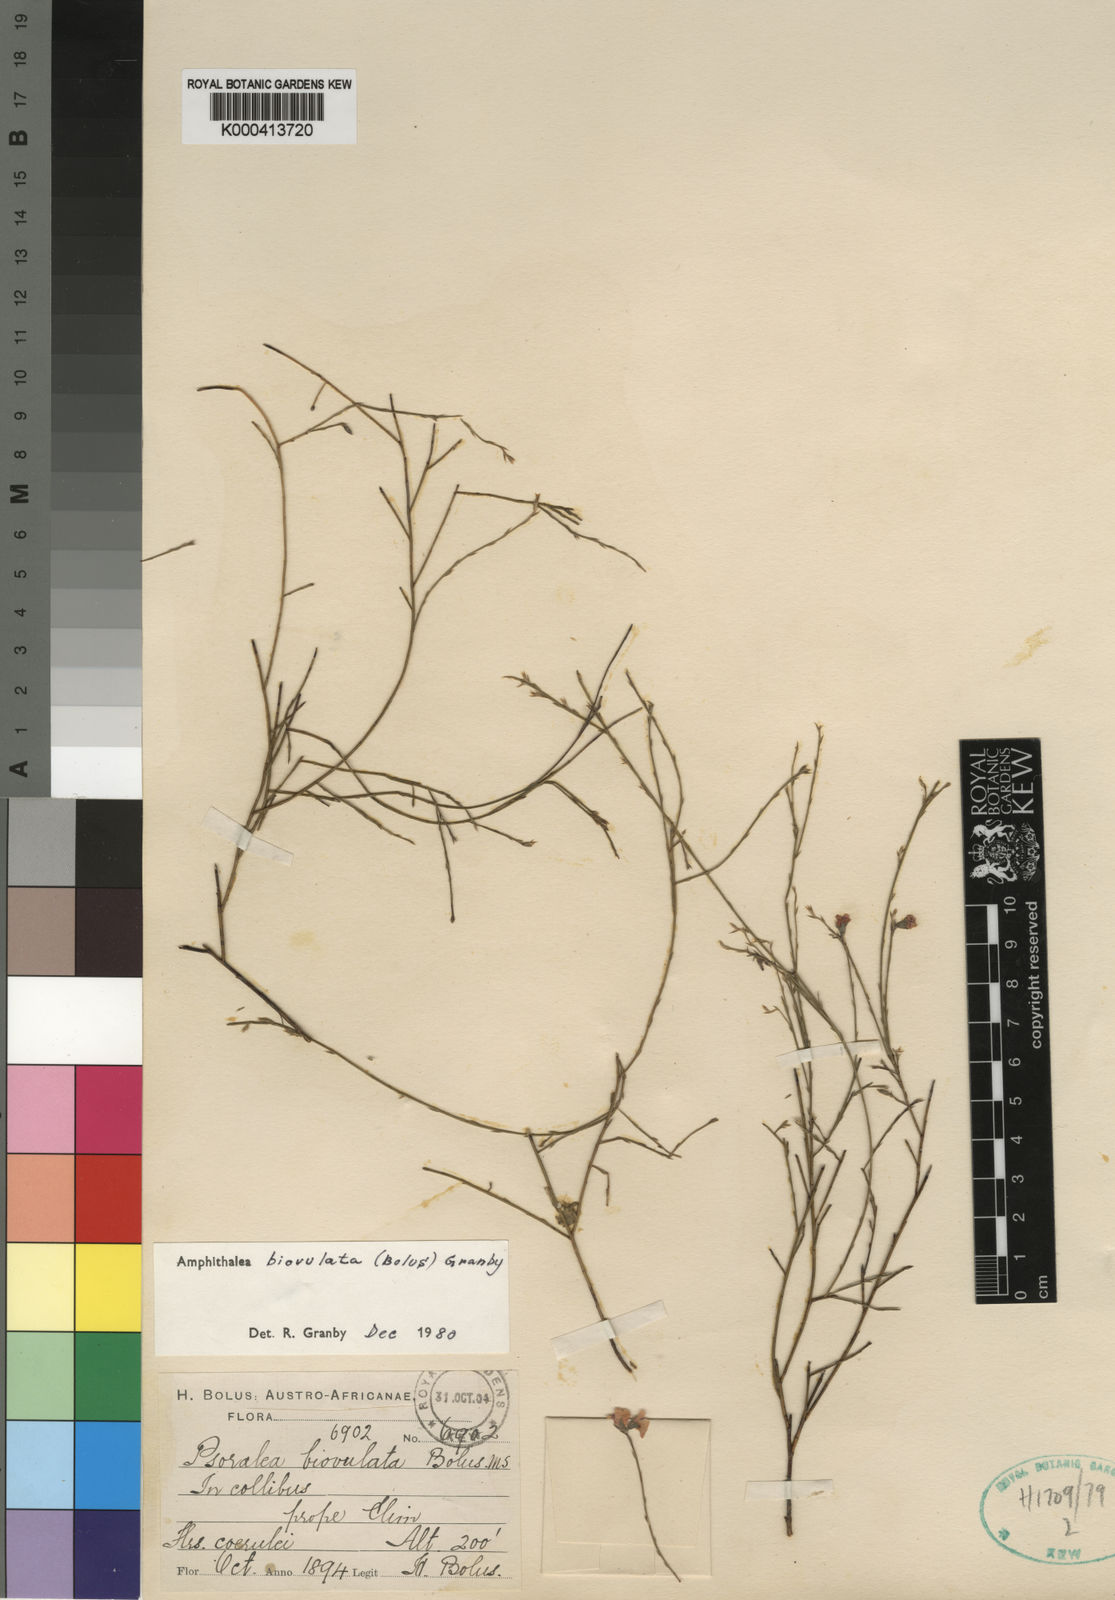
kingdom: Plantae
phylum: Tracheophyta
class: Magnoliopsida
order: Fabales
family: Fabaceae
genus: Amphithalea
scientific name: Amphithalea biovulata
